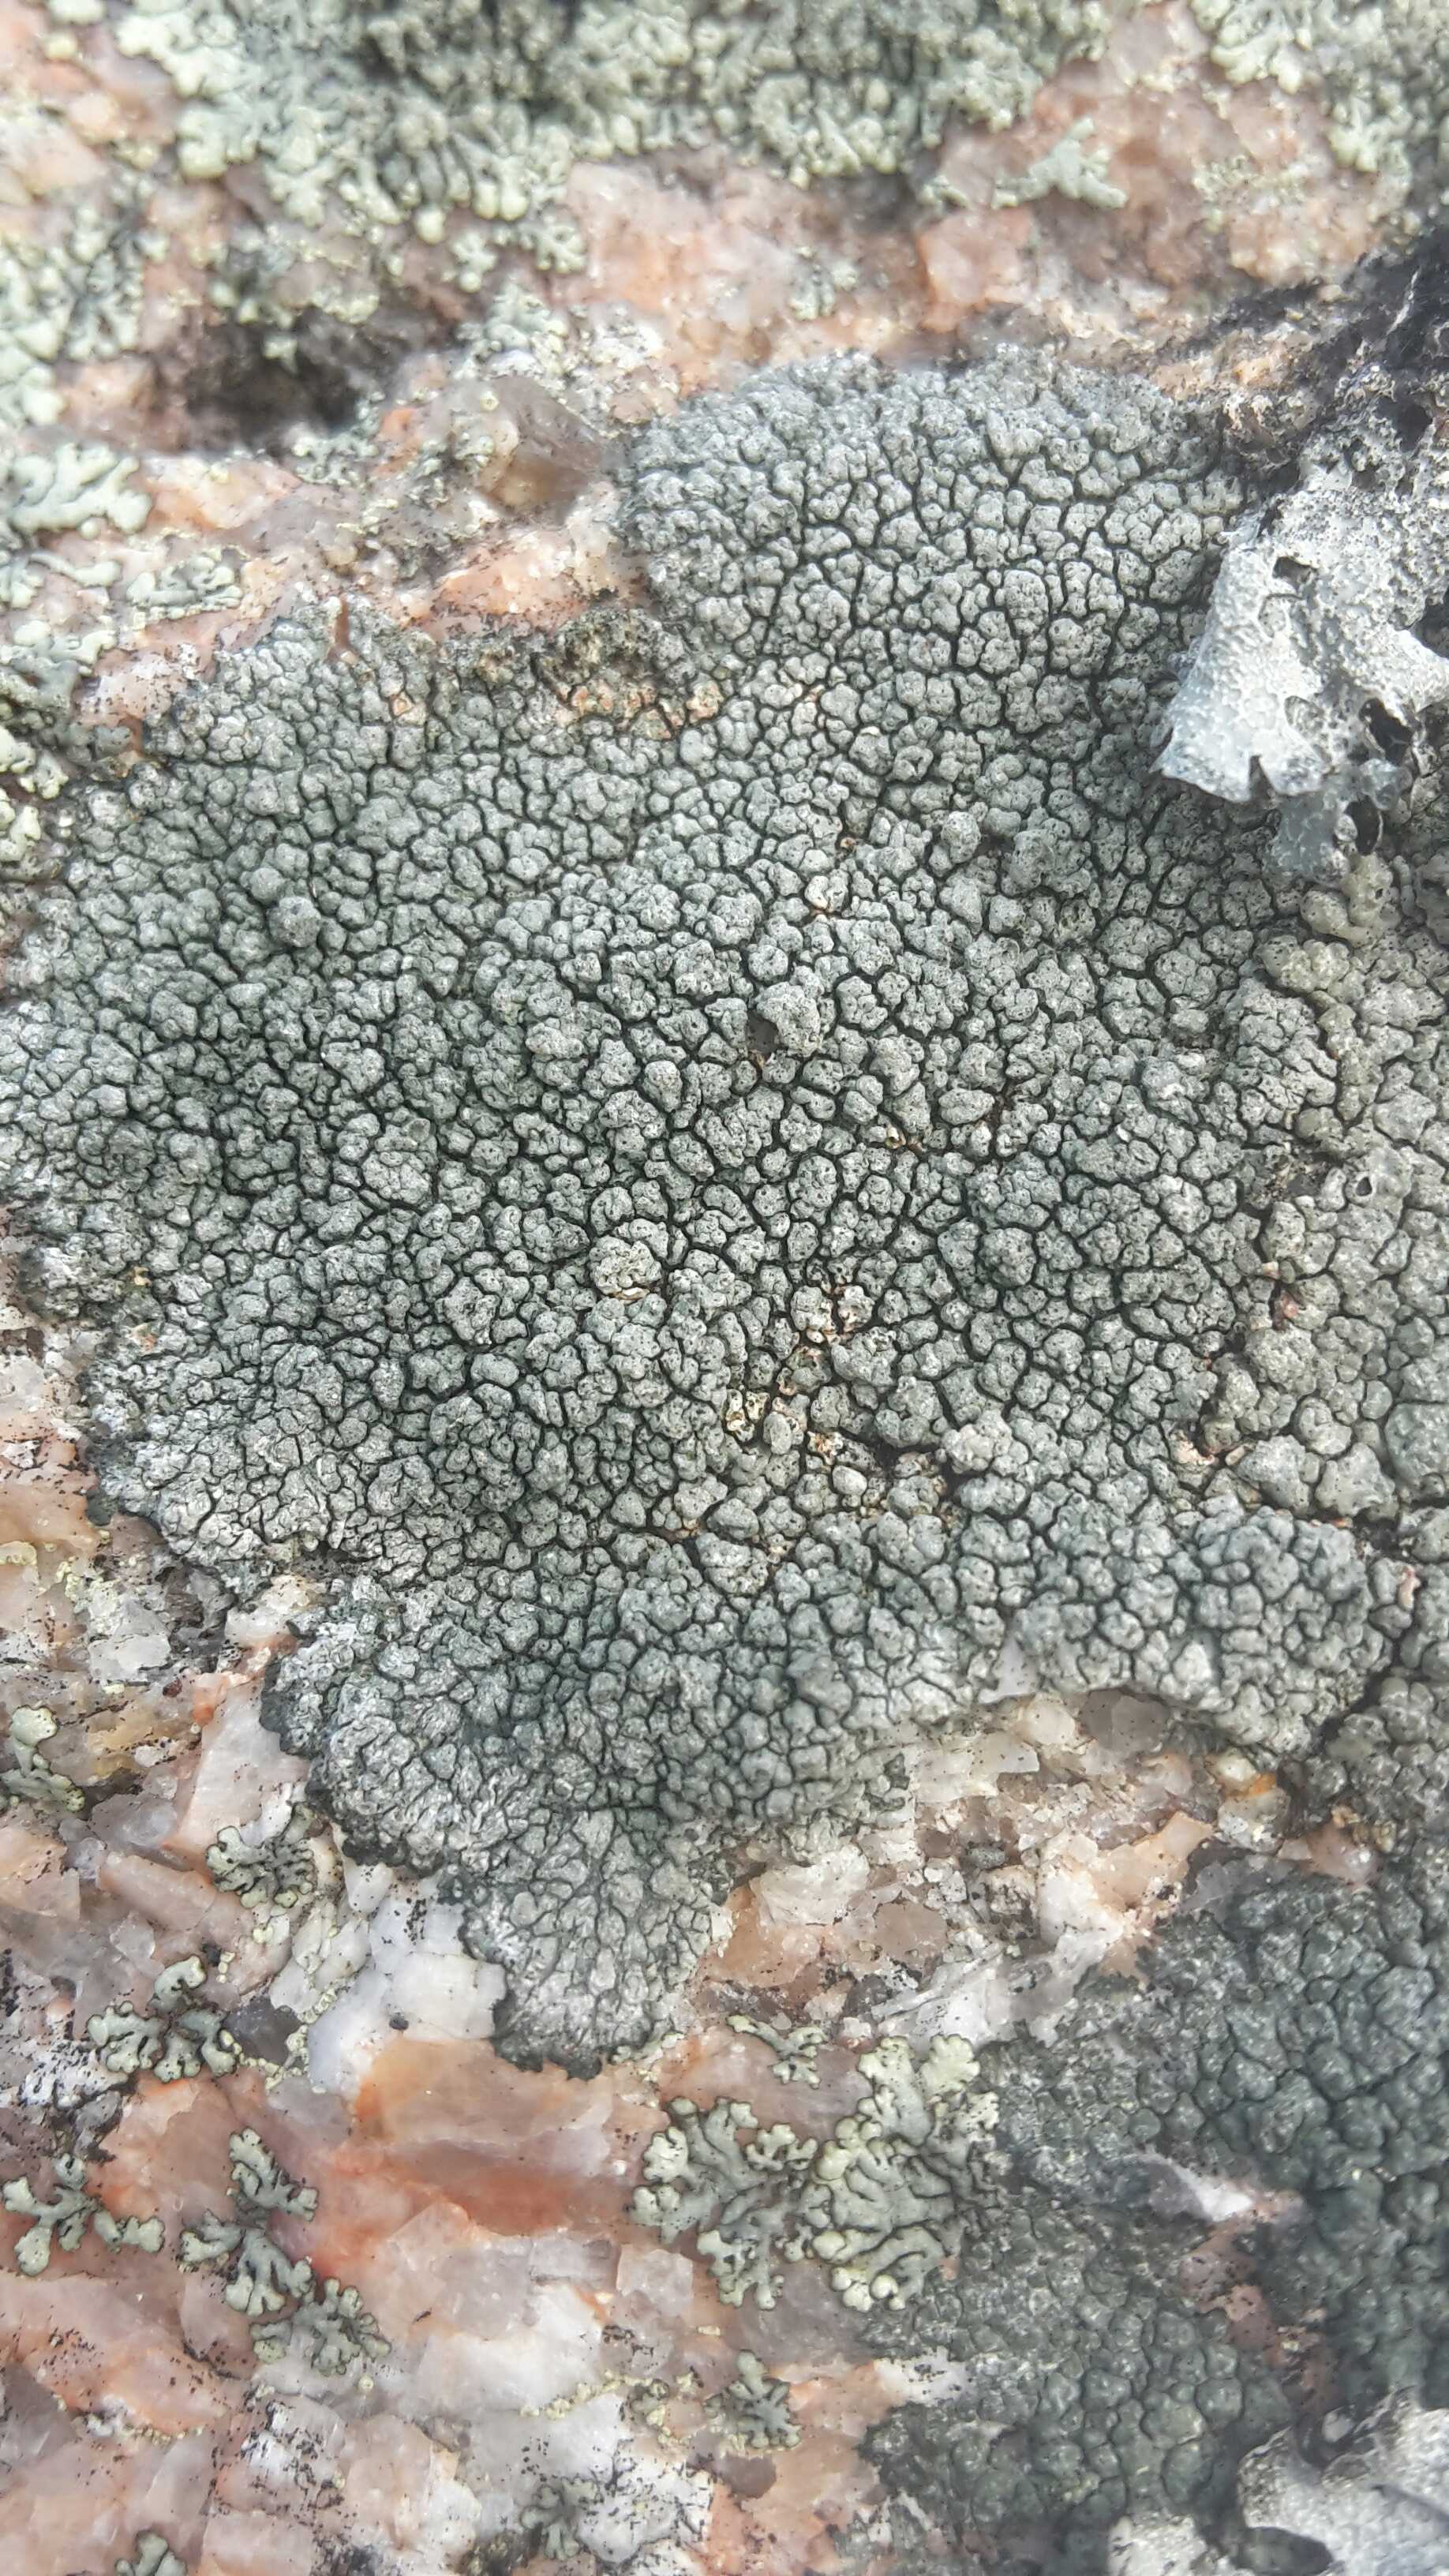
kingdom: Fungi
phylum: Ascomycota
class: Lecanoromycetes
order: Pertusariales
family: Pertusariaceae
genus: Pertusaria
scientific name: Pertusaria pertusa
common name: almindelig prikvortelav
